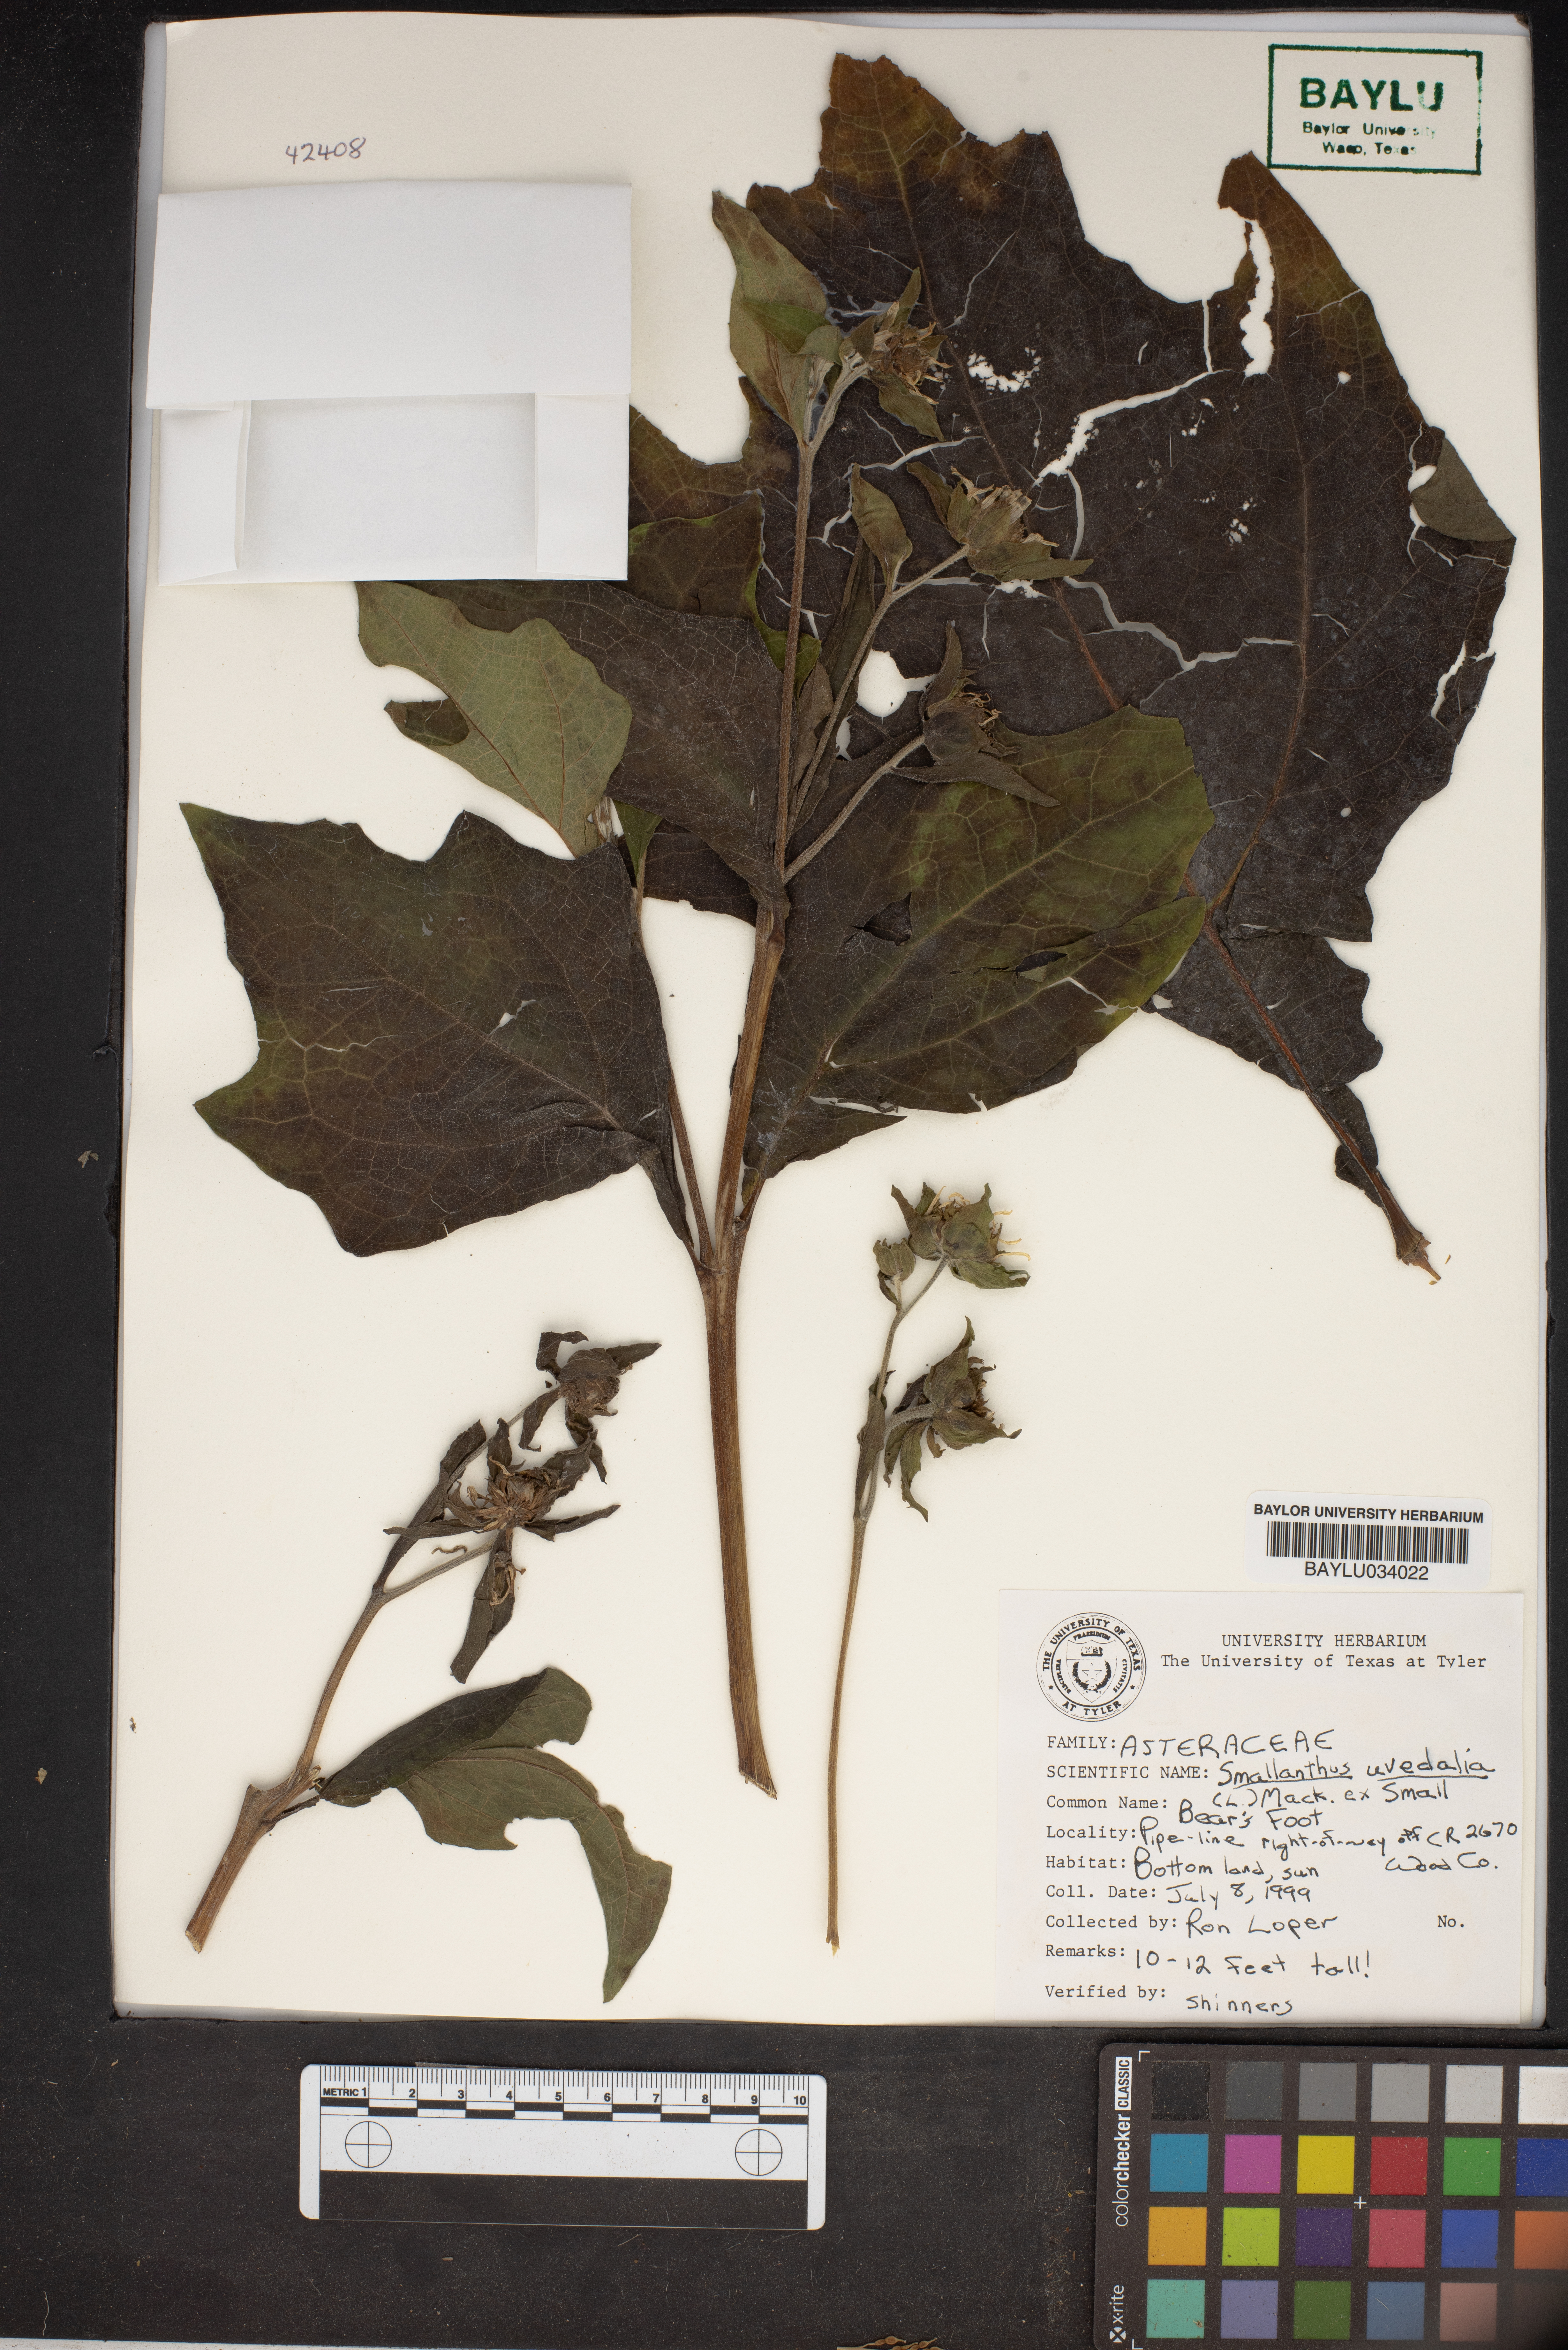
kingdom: Plantae
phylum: Tracheophyta
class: Magnoliopsida
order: Asterales
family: Asteraceae
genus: Smallanthus
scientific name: Smallanthus uvedalia
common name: Bear's-foot
